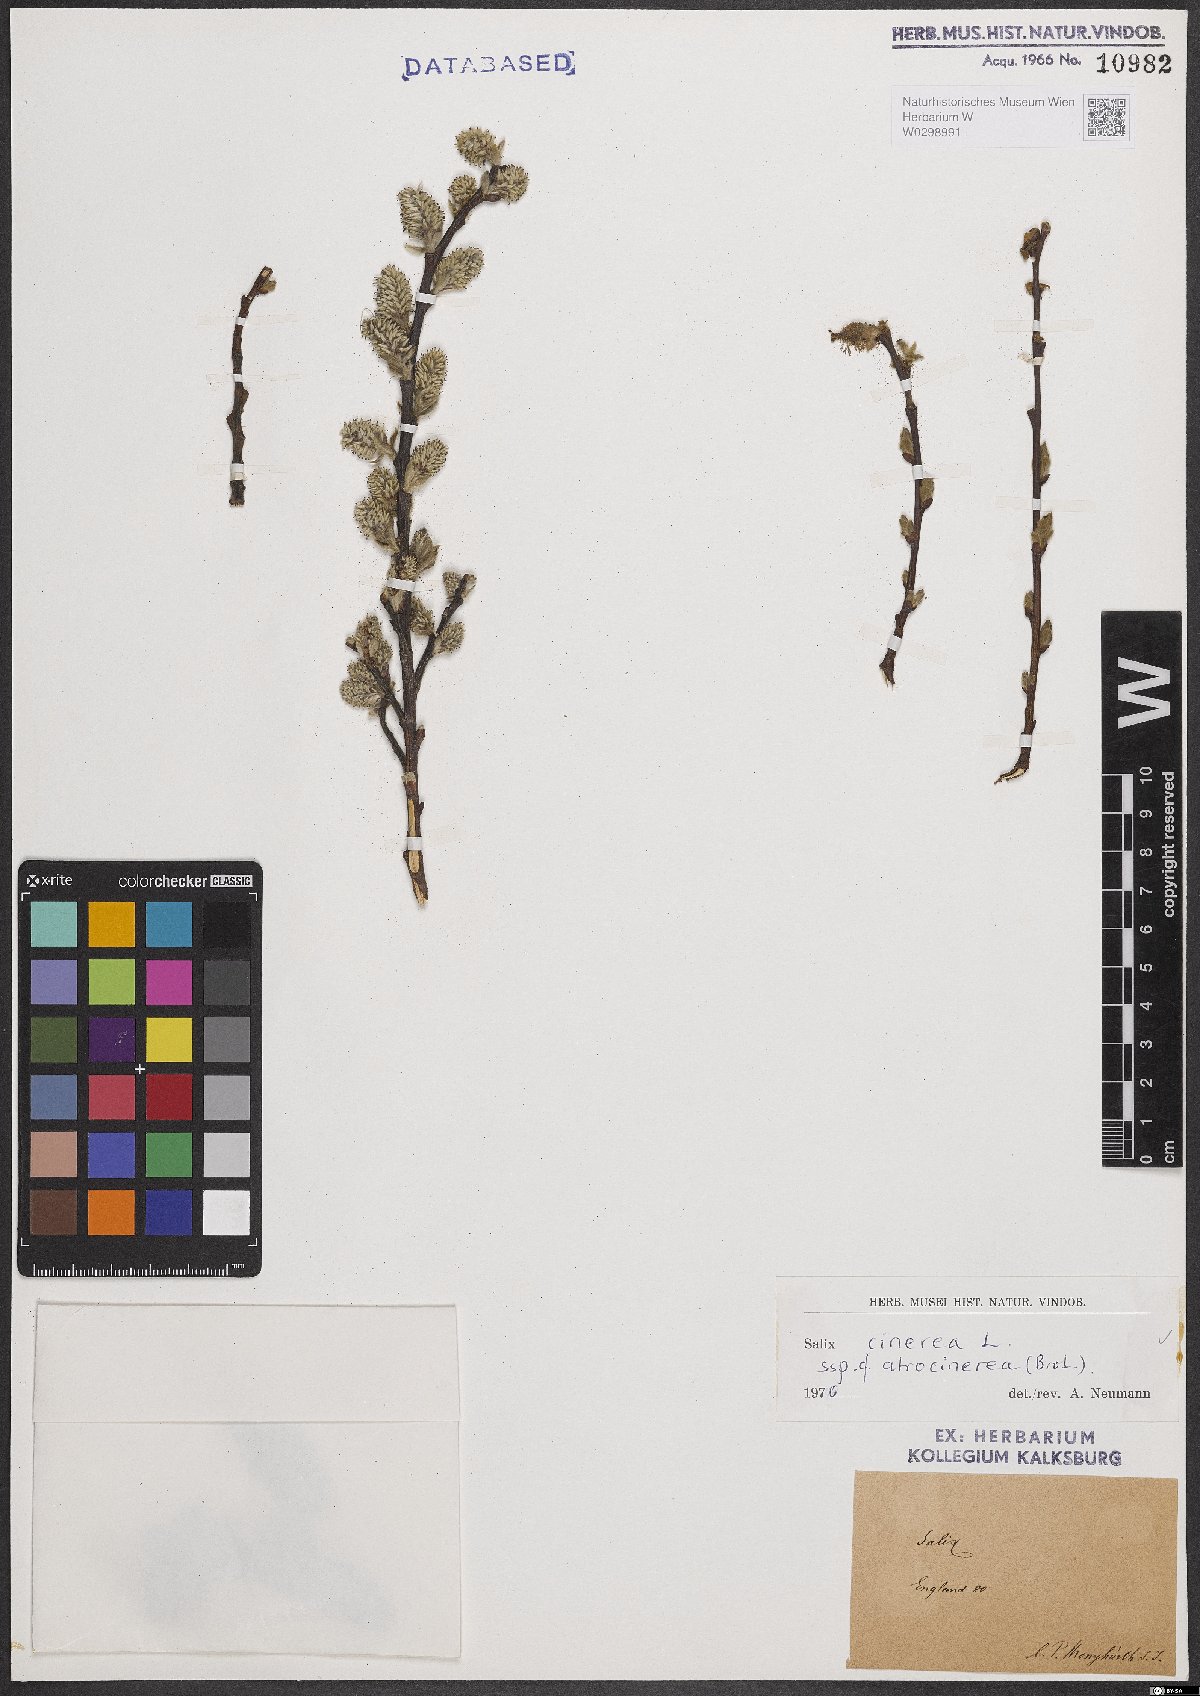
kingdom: Plantae
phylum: Tracheophyta
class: Magnoliopsida
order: Malpighiales
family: Salicaceae
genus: Salix
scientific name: Salix atrocinerea
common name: Rusty willow
